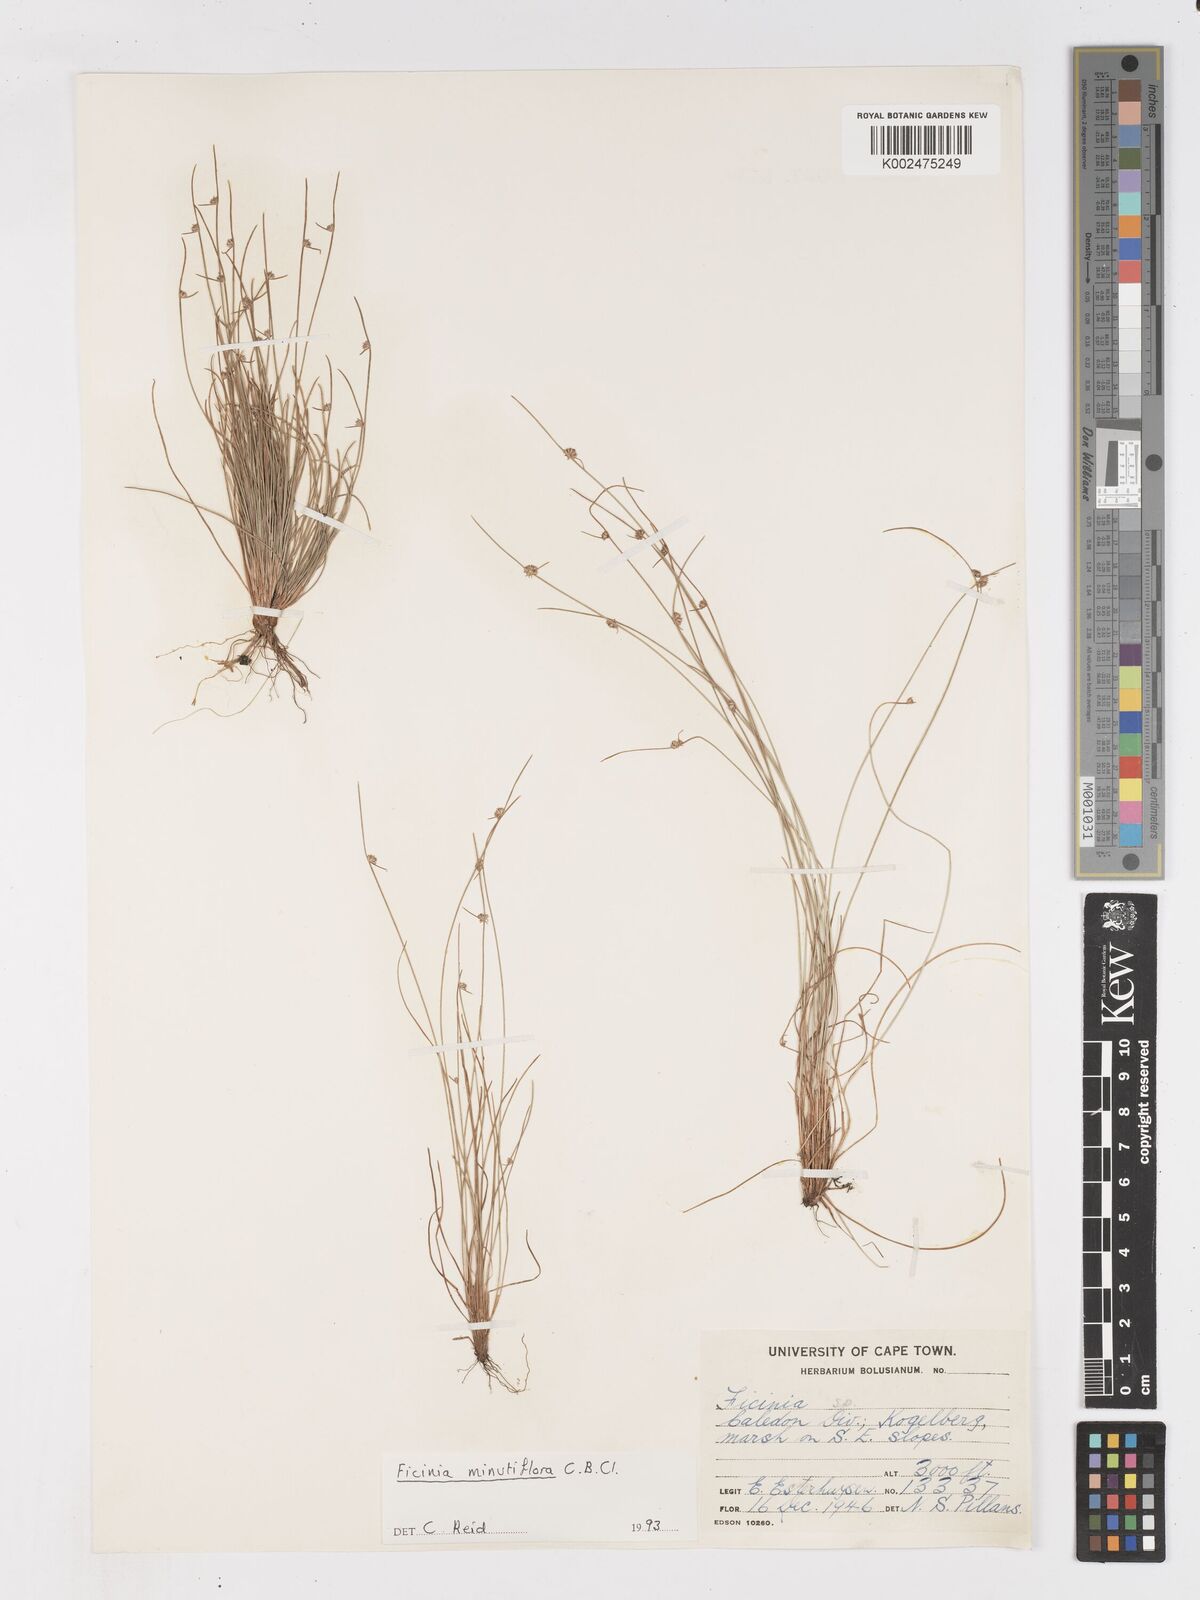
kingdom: Plantae
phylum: Tracheophyta
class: Liliopsida
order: Poales
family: Cyperaceae
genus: Ficinia
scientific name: Ficinia minutiflora
